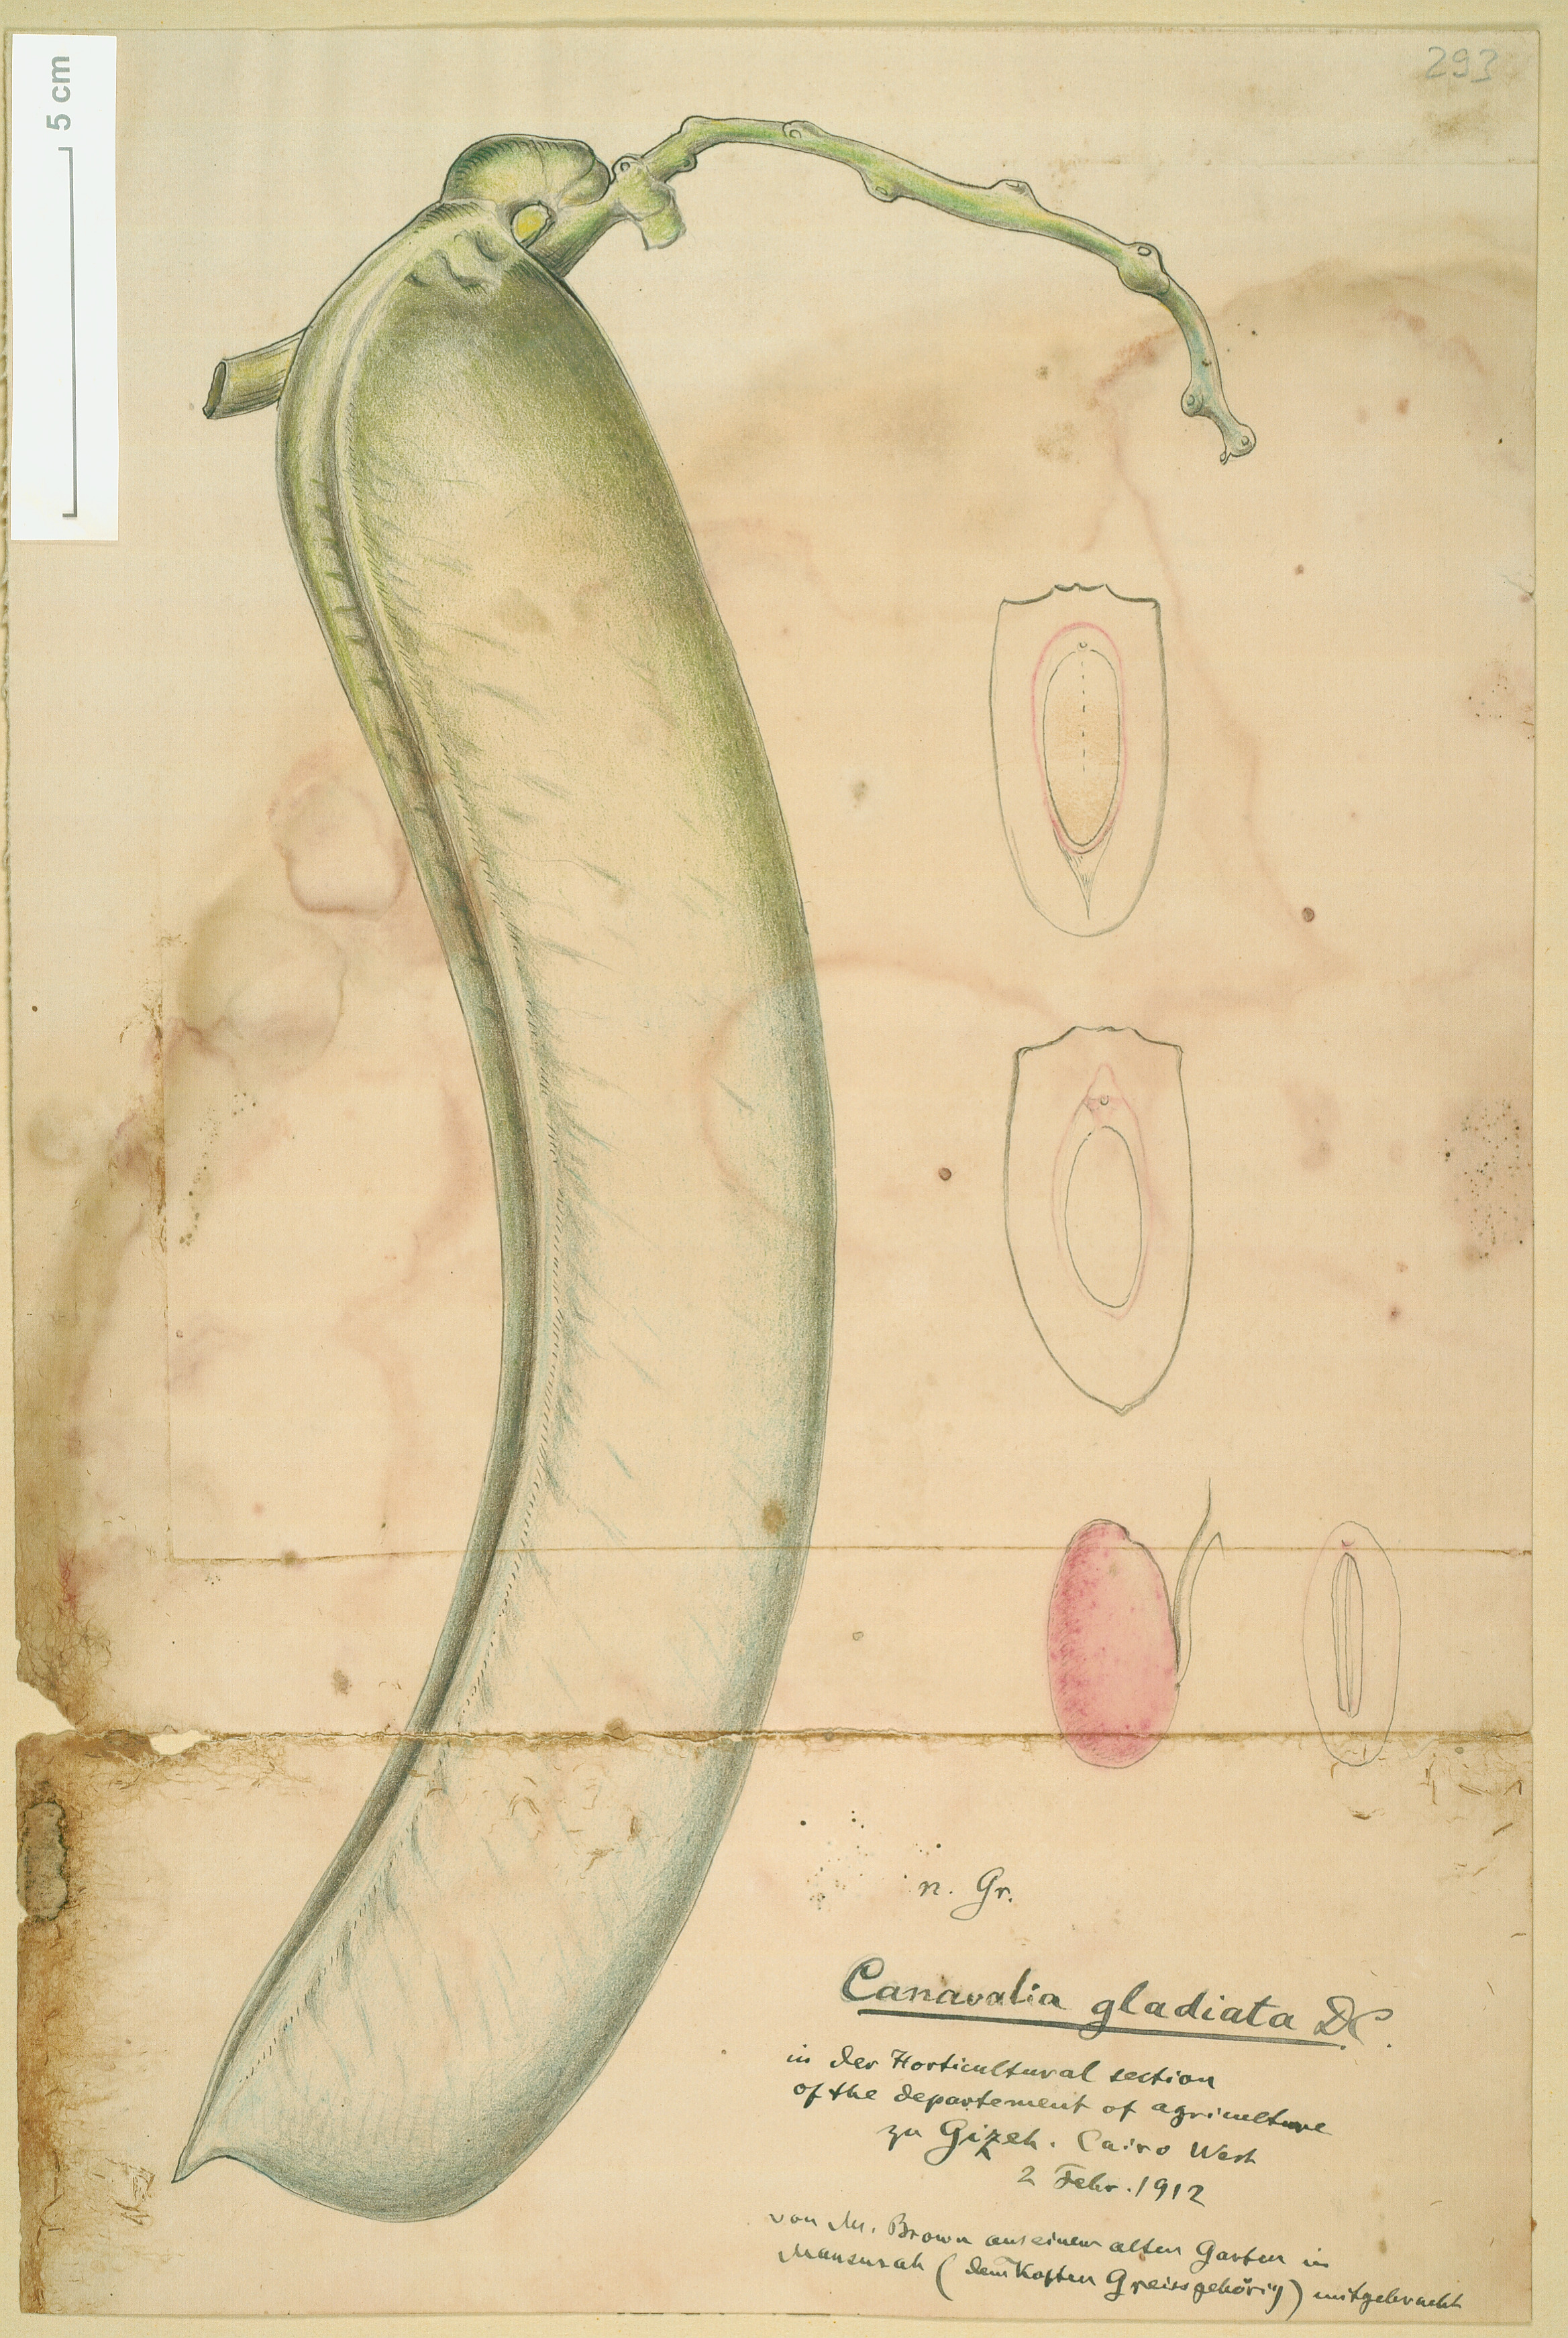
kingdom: Plantae
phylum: Tracheophyta
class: Magnoliopsida
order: Fabales
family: Fabaceae
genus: Canavalia
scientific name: Canavalia gladiata
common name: Scimitar-bean
